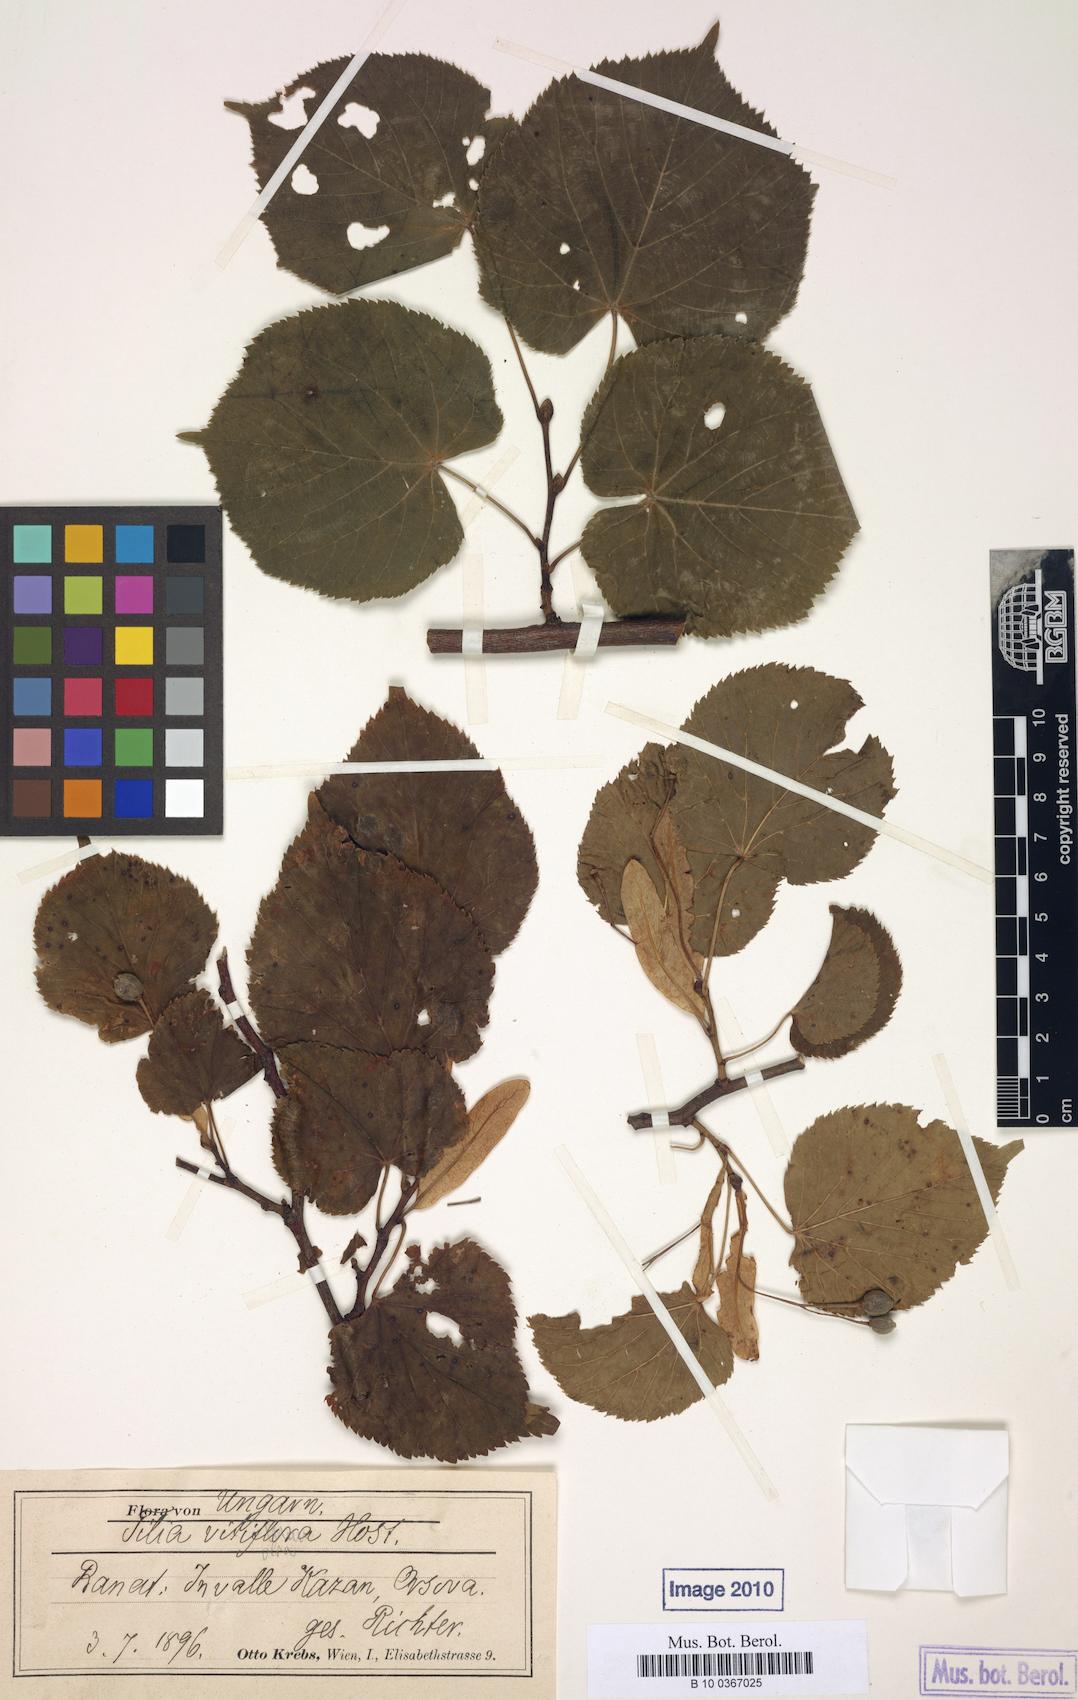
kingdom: Plantae
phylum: Tracheophyta
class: Magnoliopsida
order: Malvales
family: Malvaceae
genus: Tilia
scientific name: Tilia platyphyllos
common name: Large-leaved lime
